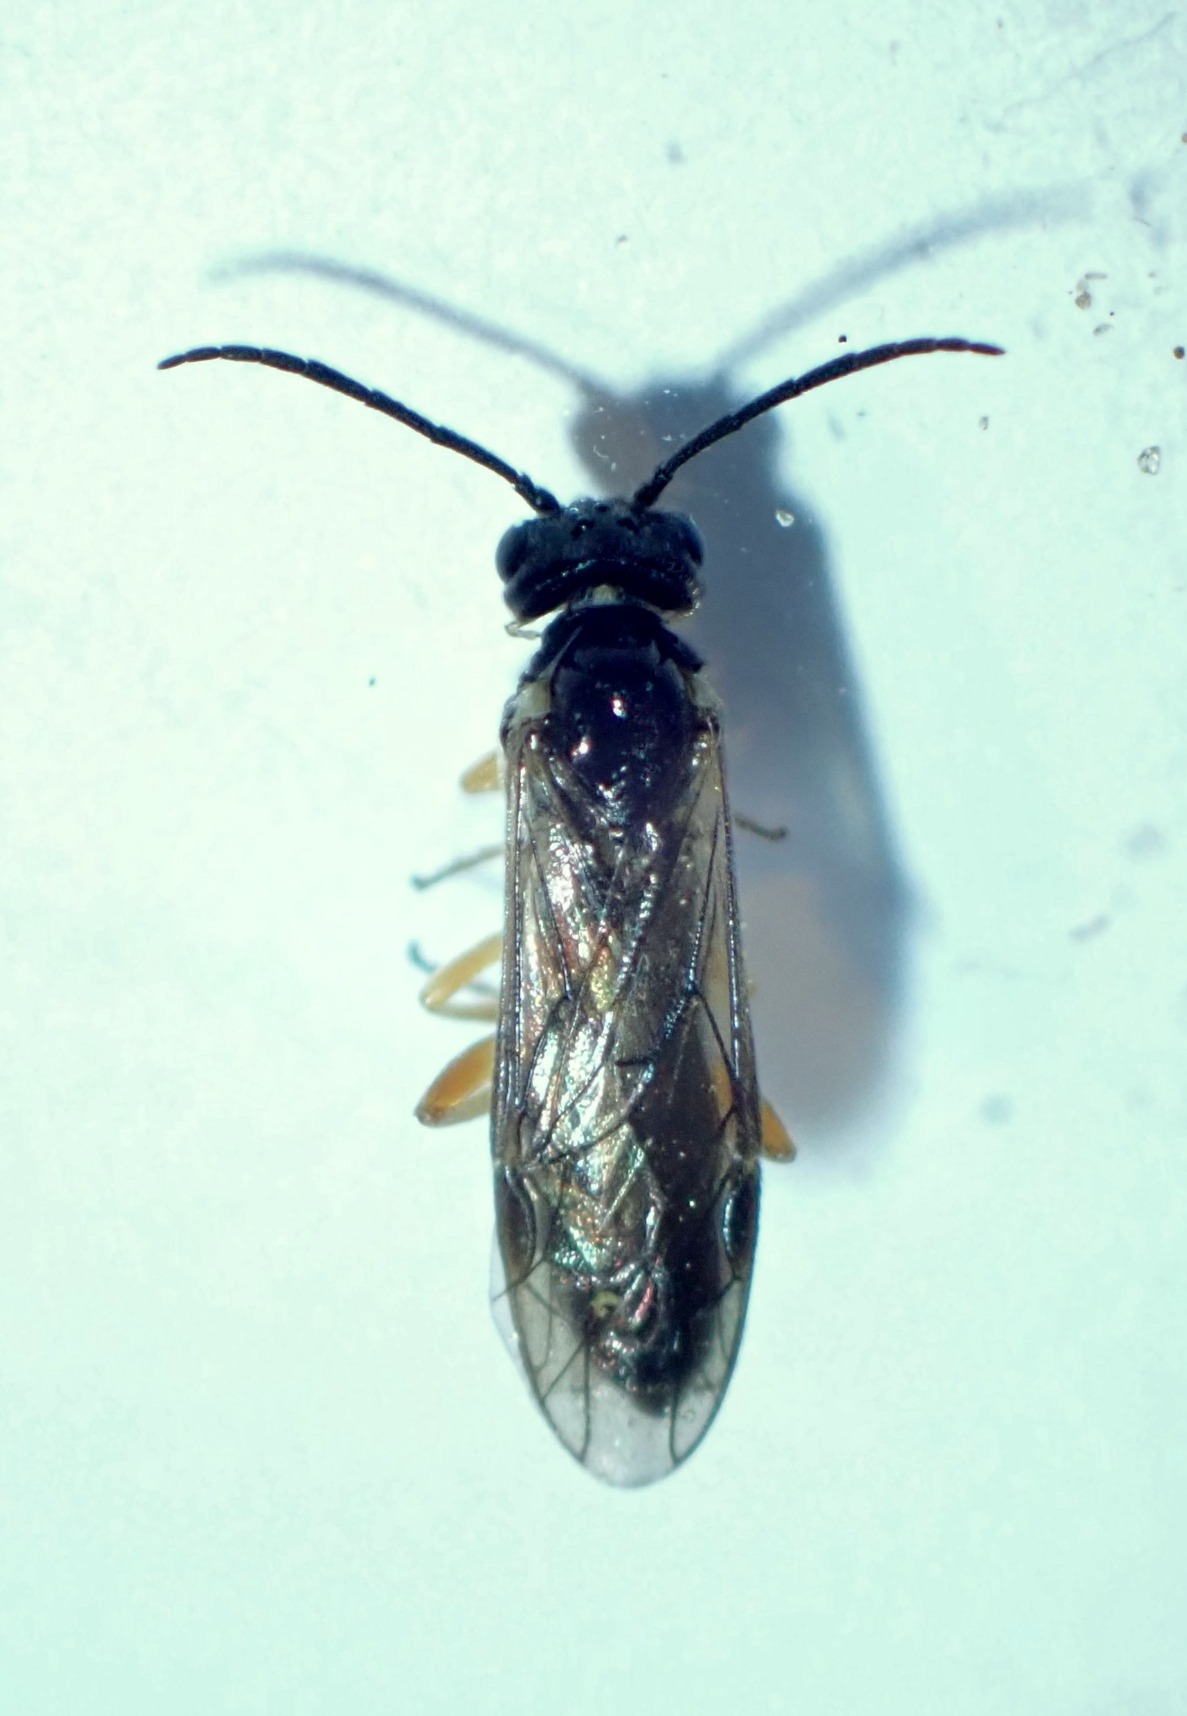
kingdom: Animalia
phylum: Arthropoda
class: Insecta
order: Hymenoptera
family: Tenthredinidae
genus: Ametastegia
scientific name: Ametastegia albipes
